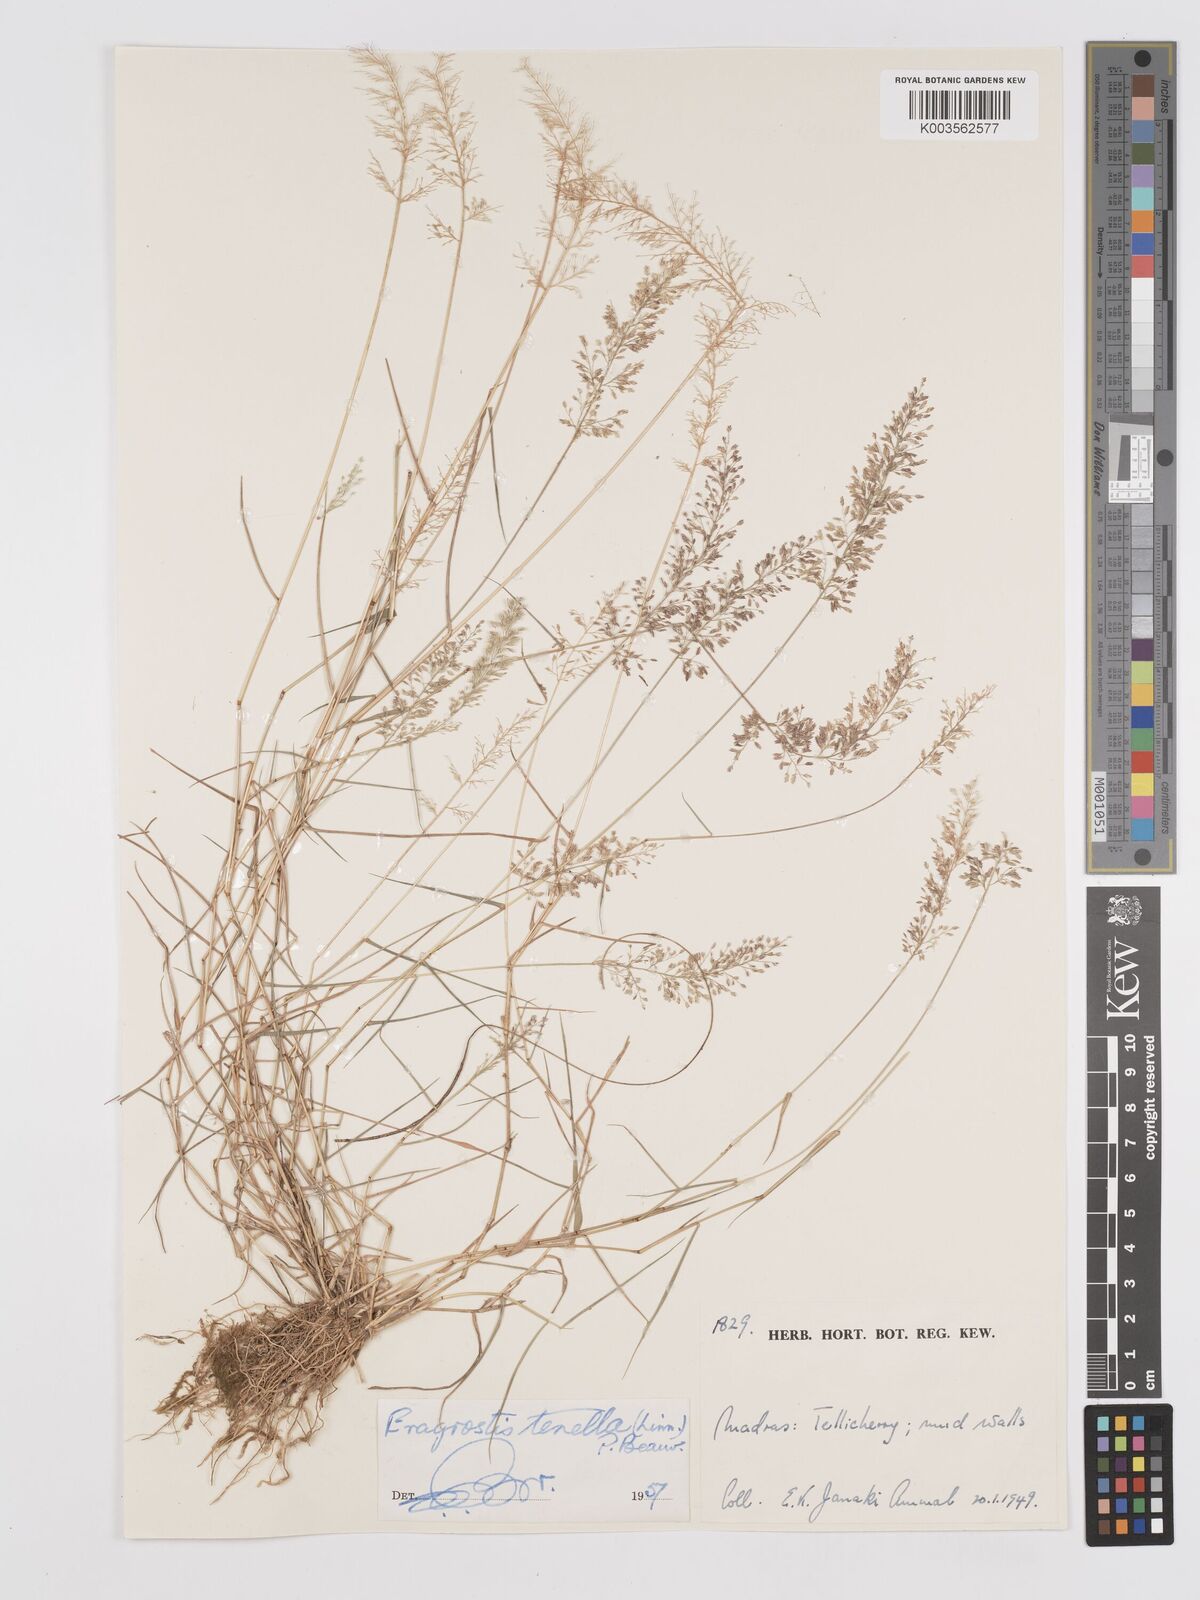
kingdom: Plantae
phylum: Tracheophyta
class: Liliopsida
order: Poales
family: Poaceae
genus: Eragrostis
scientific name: Eragrostis tenella
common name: Japanese lovegrass
